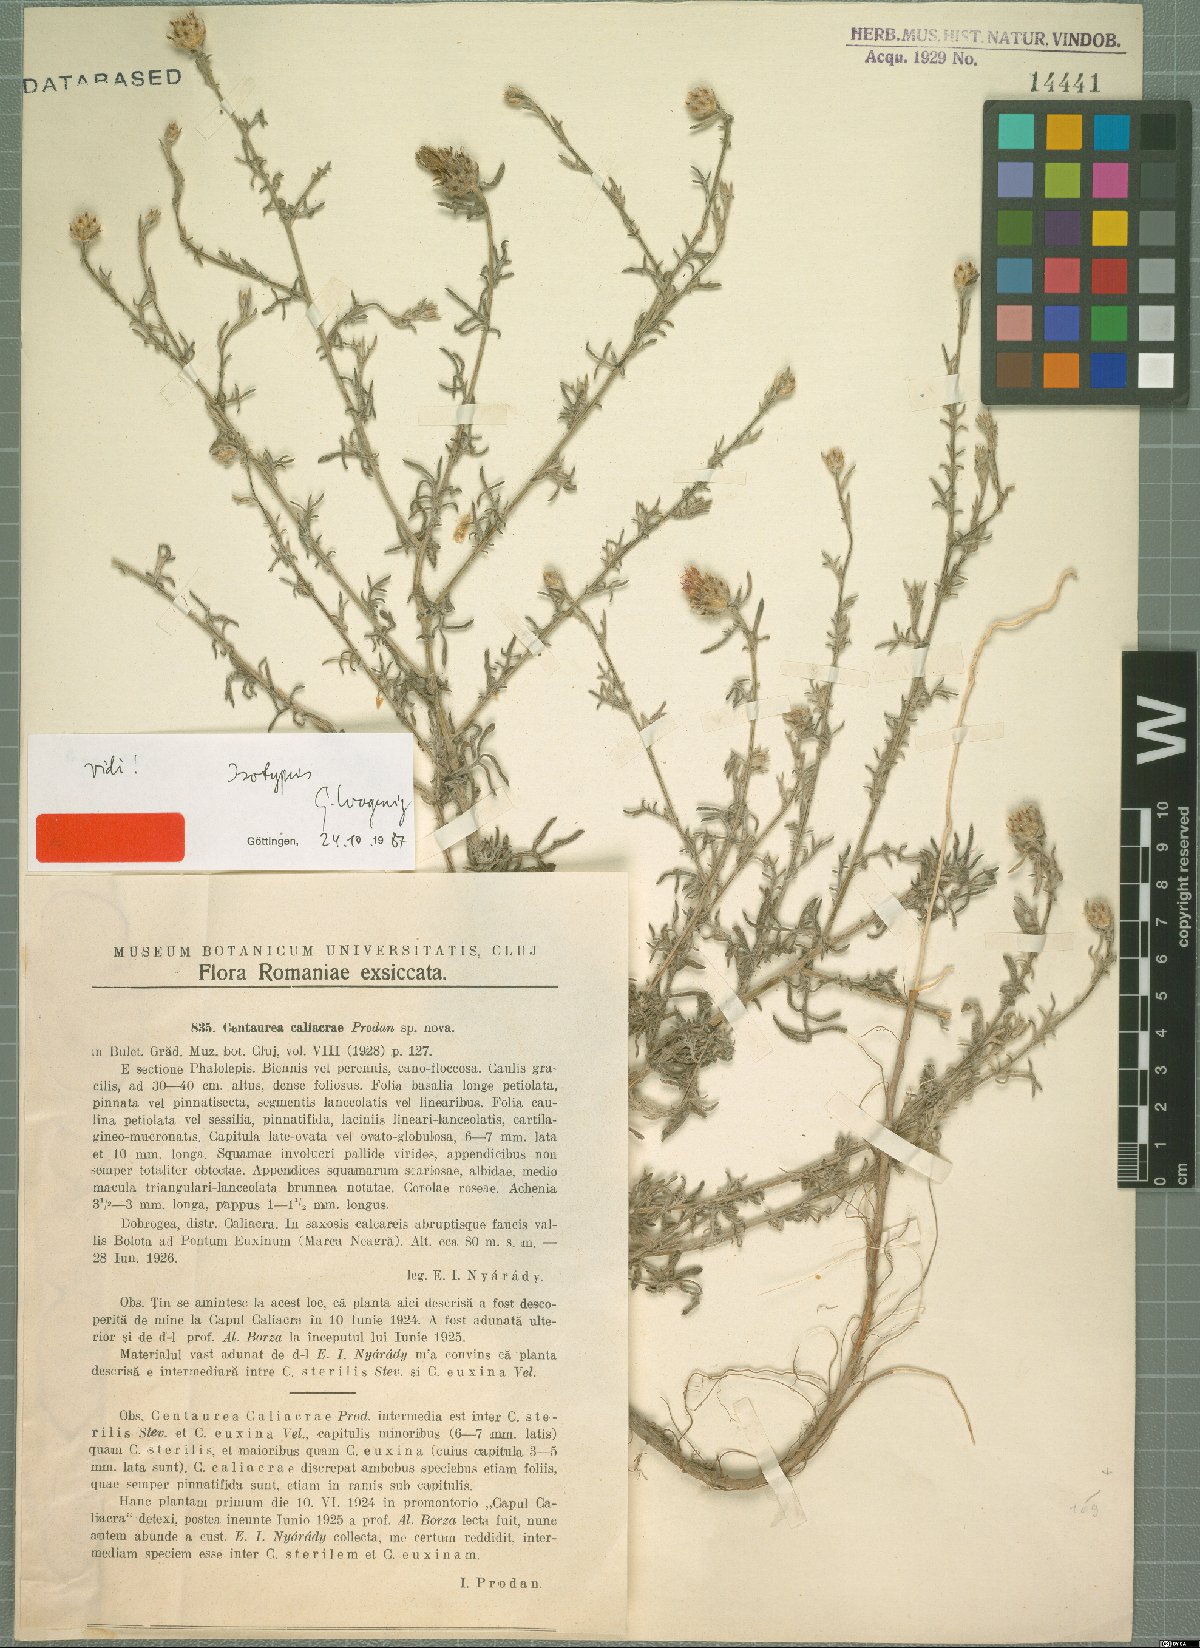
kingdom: Plantae
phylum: Tracheophyta
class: Magnoliopsida
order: Asterales
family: Asteraceae
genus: Centaurea
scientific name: Centaurea caliacrae
